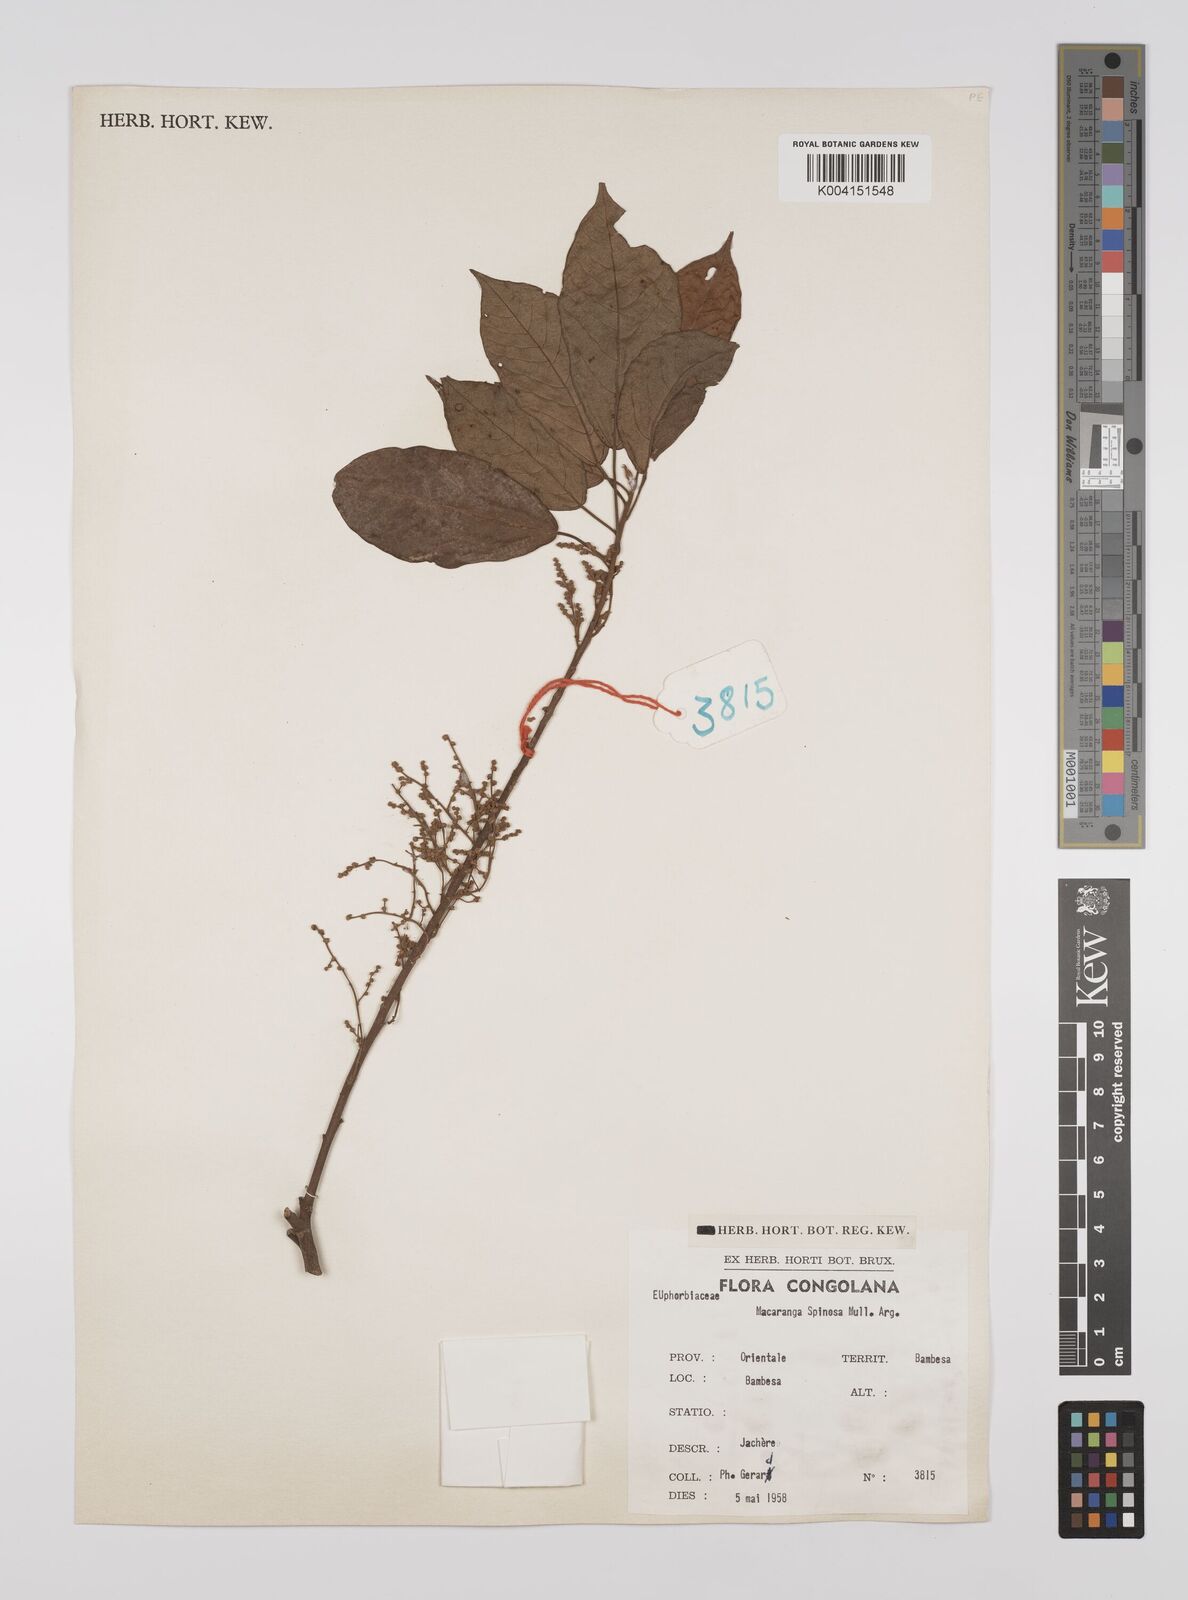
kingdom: Plantae
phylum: Tracheophyta
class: Magnoliopsida
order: Malpighiales
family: Euphorbiaceae
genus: Macaranga
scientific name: Macaranga spinosa
